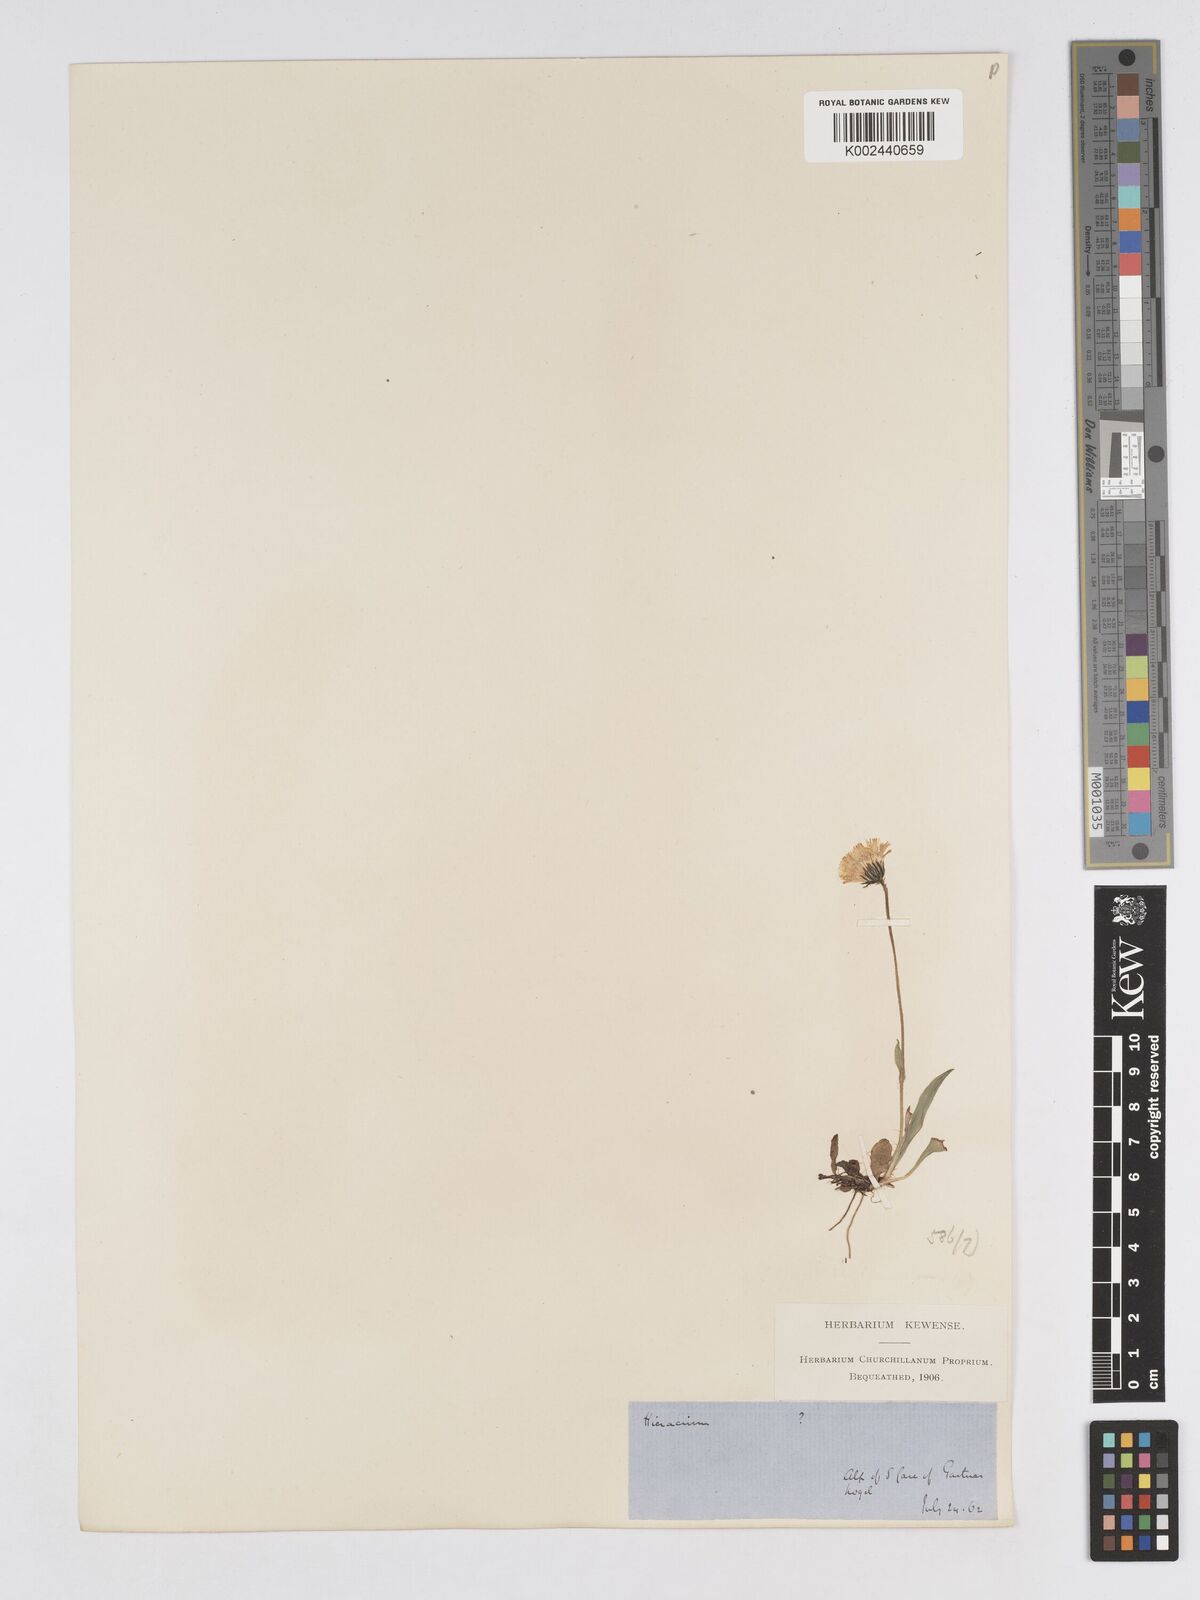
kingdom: Plantae
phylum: Tracheophyta
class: Magnoliopsida
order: Asterales
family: Asteraceae
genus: Pilosella
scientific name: Pilosella floribunda
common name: Glaucous hawkweed
